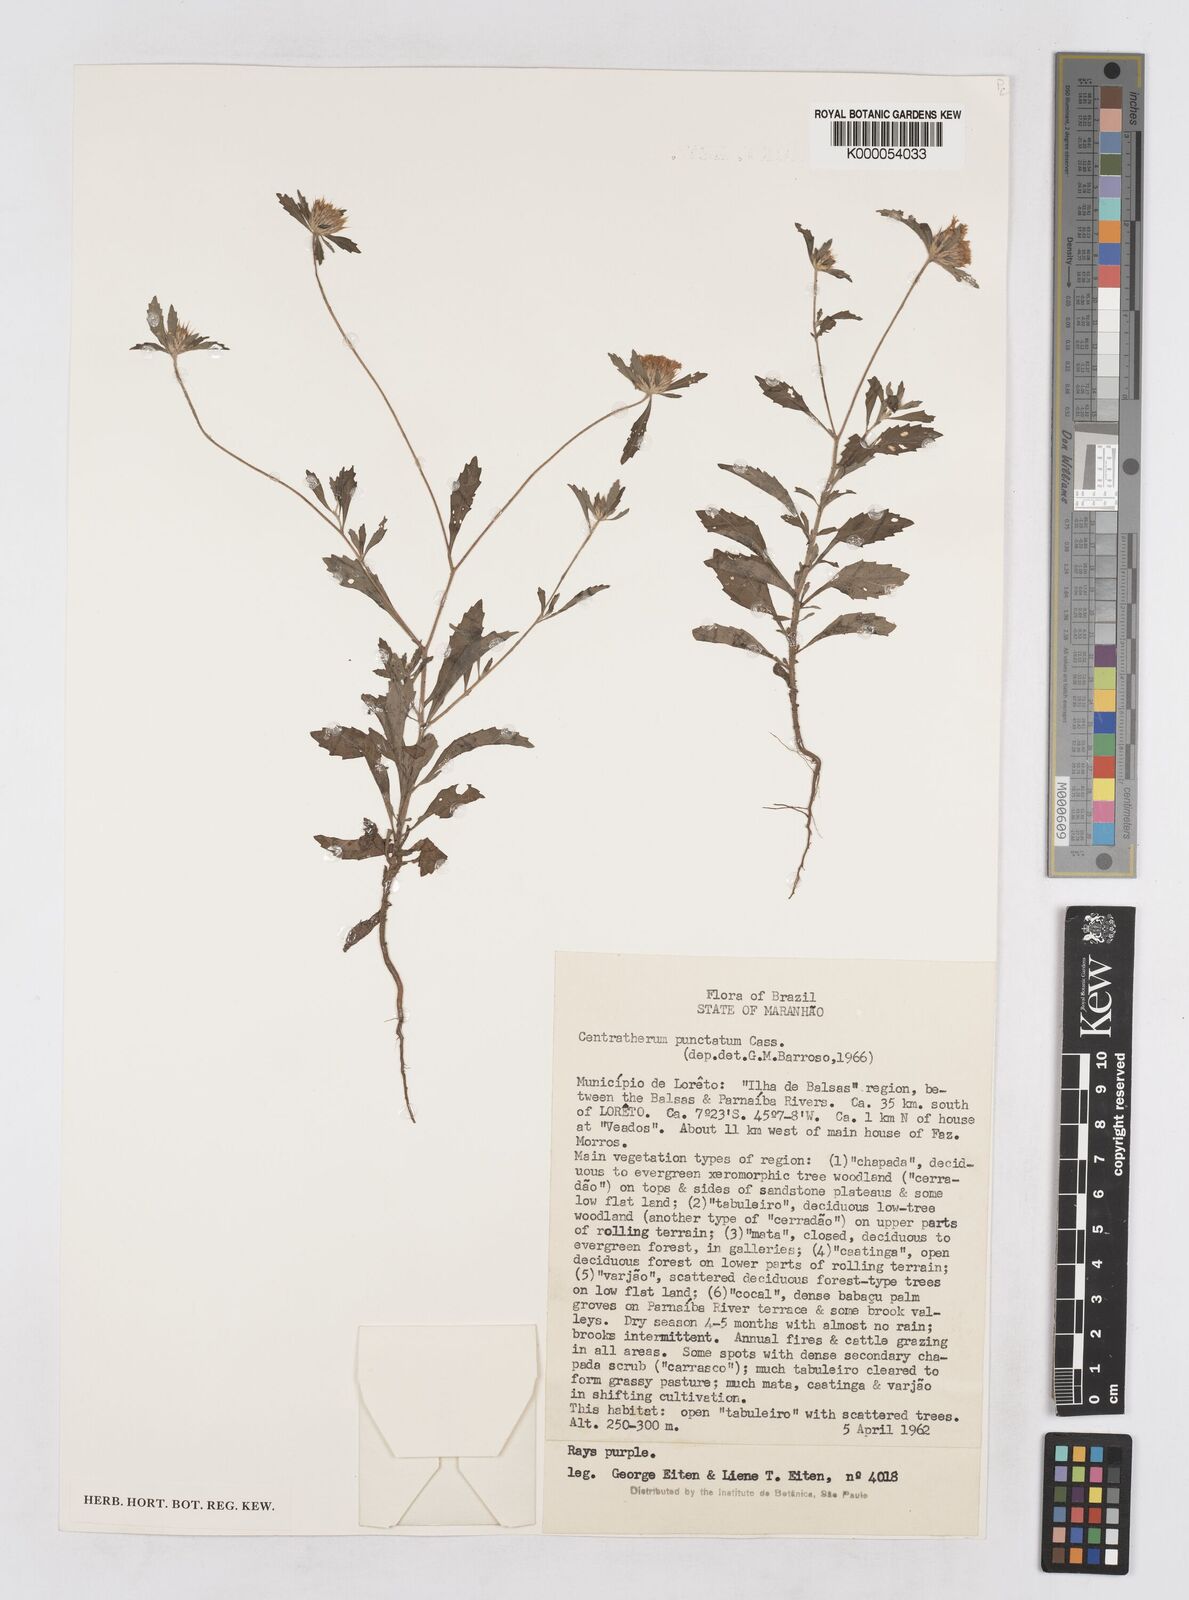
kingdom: Plantae
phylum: Tracheophyta
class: Magnoliopsida
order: Asterales
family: Asteraceae
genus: Centratherum
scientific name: Centratherum punctatum
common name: Larkdaisy
